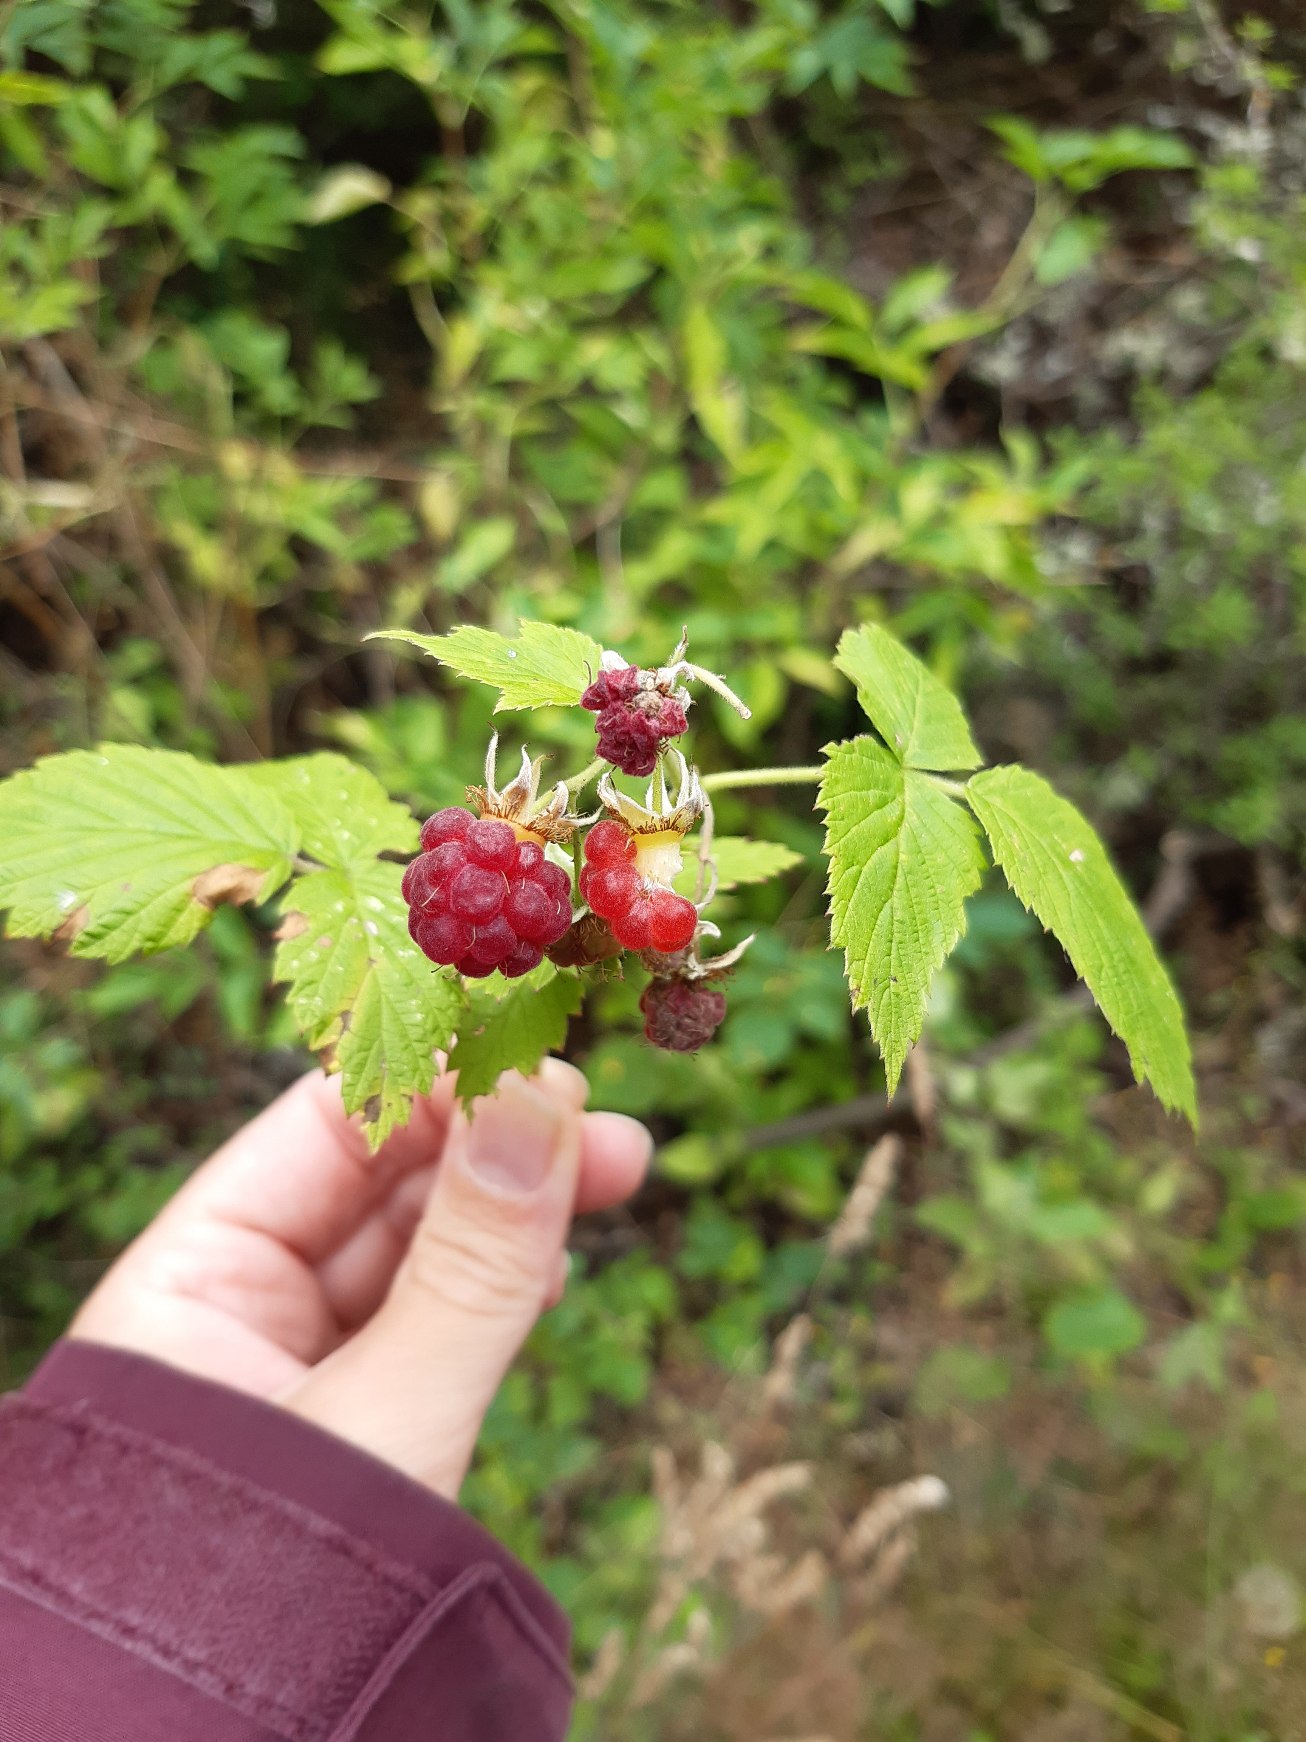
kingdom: Plantae
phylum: Tracheophyta
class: Magnoliopsida
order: Rosales
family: Rosaceae
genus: Rubus
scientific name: Rubus idaeus
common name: Hindbær
